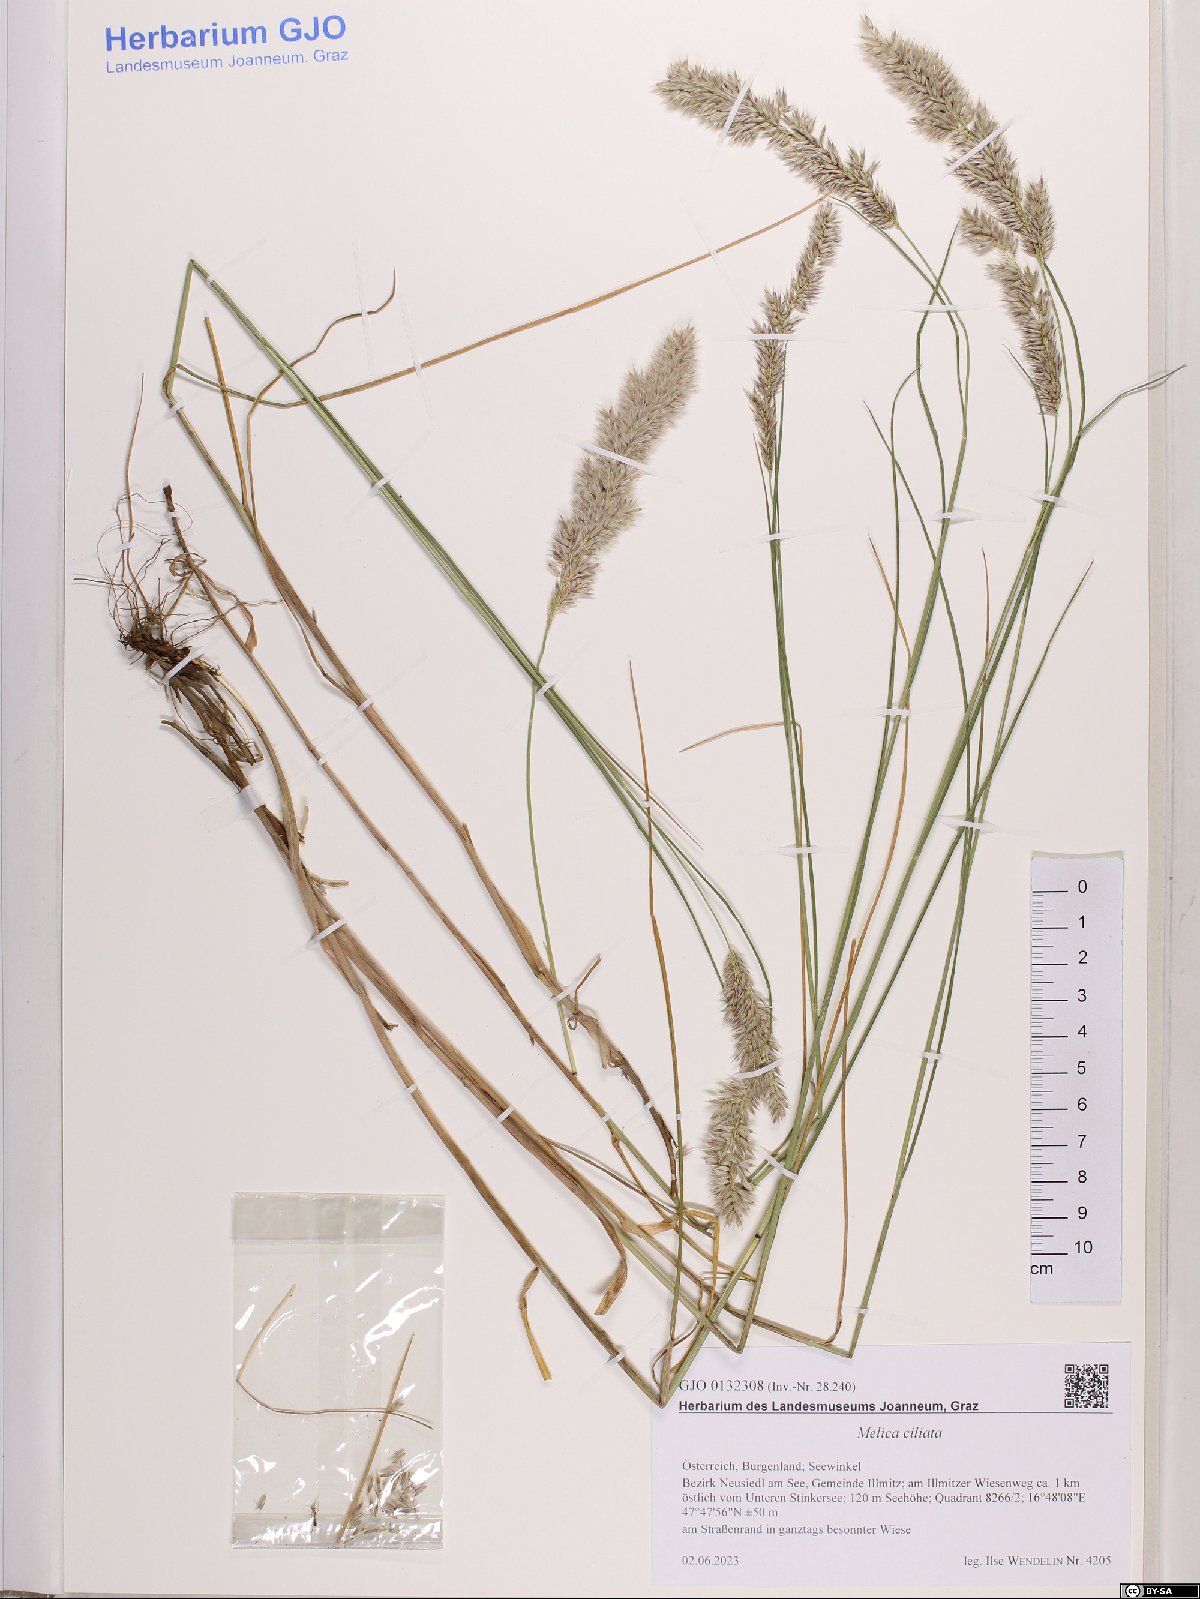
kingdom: Plantae
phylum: Tracheophyta
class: Liliopsida
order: Poales
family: Poaceae
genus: Melica
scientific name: Melica ciliata
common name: Hairy melicgrass
